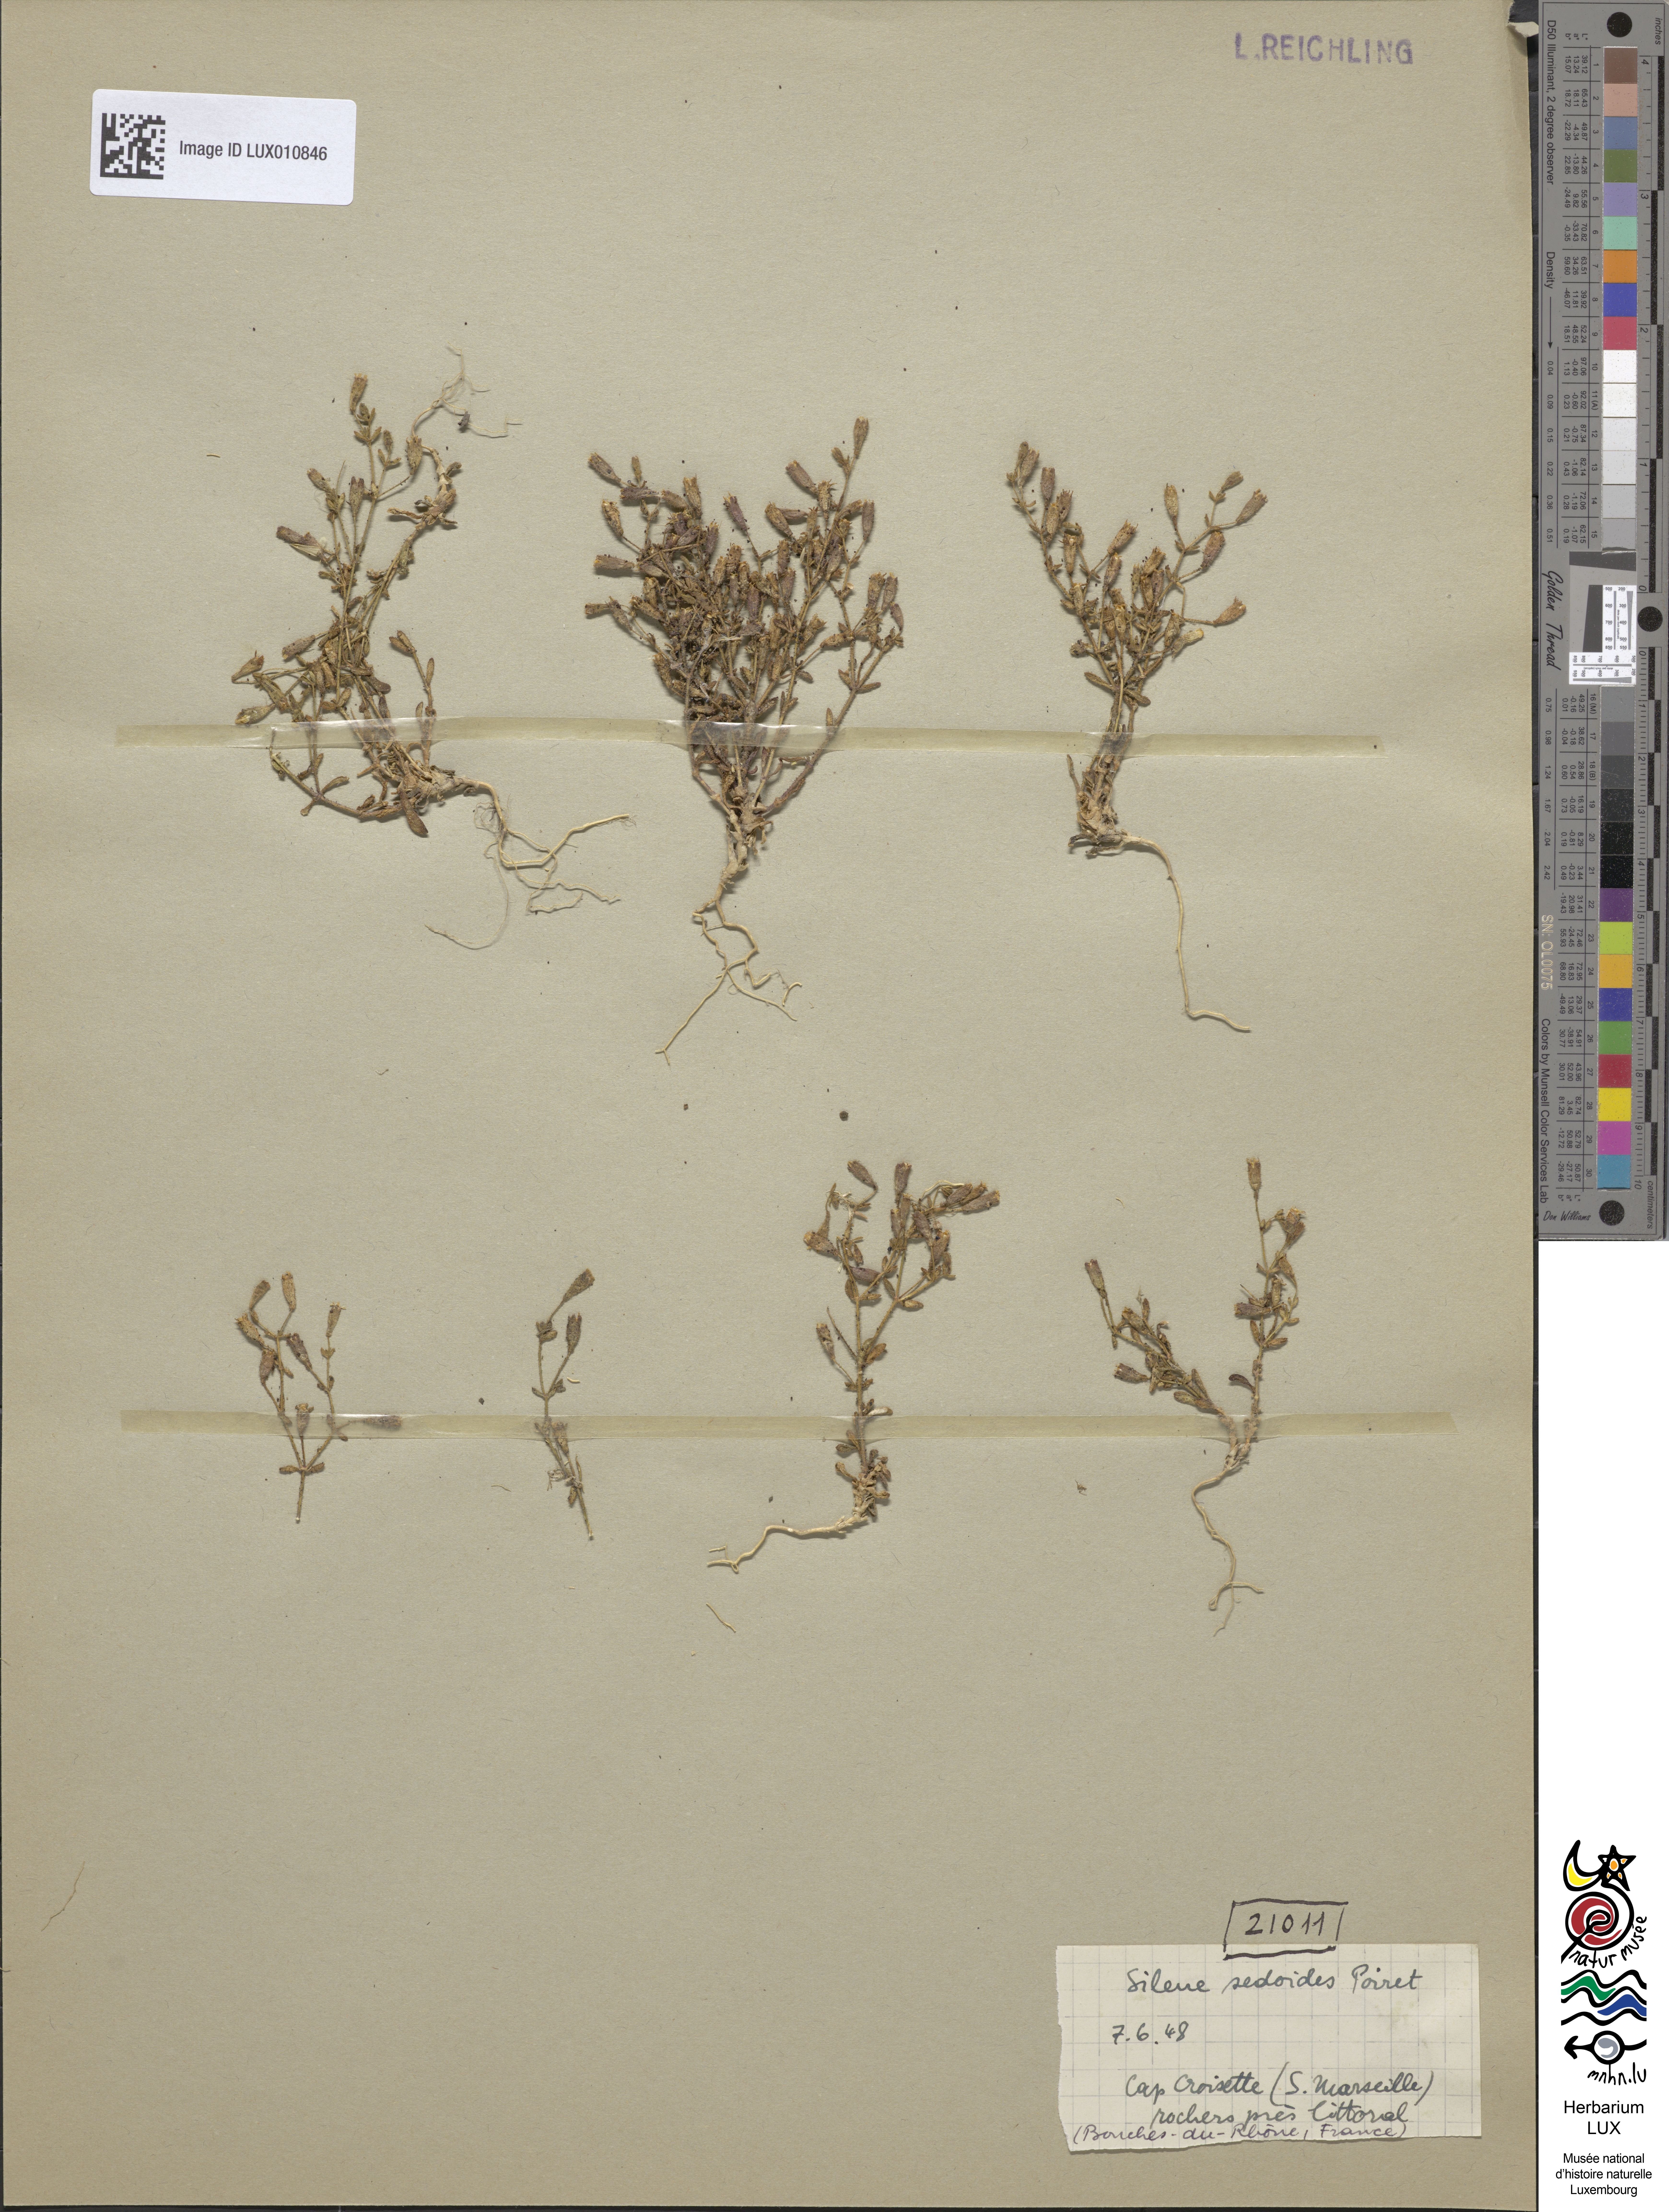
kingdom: Plantae
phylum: Tracheophyta
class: Magnoliopsida
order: Caryophyllales
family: Caryophyllaceae
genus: Silene
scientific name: Silene sedoides
